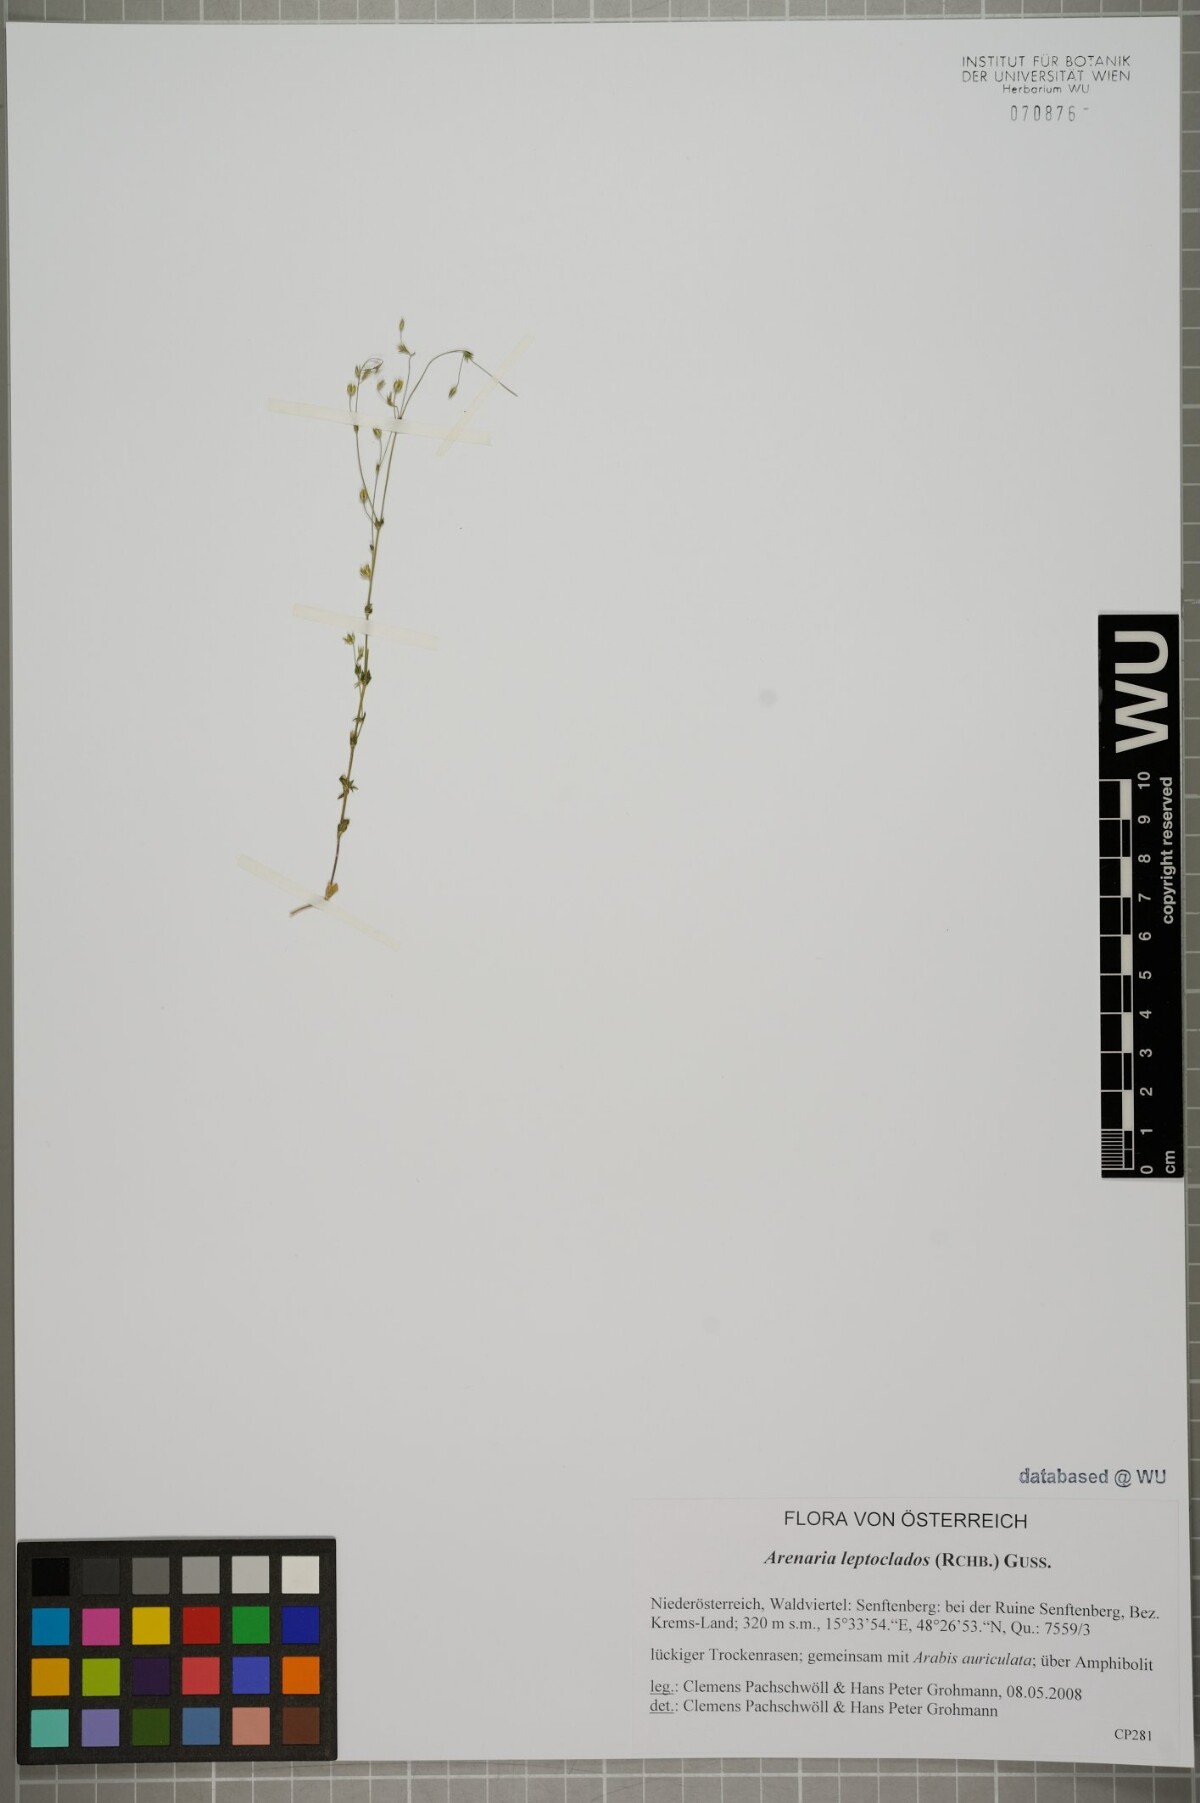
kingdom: Plantae
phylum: Tracheophyta
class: Magnoliopsida
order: Caryophyllales
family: Caryophyllaceae
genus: Arenaria
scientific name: Arenaria leptoclados
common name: Thyme-leaved sandwort
